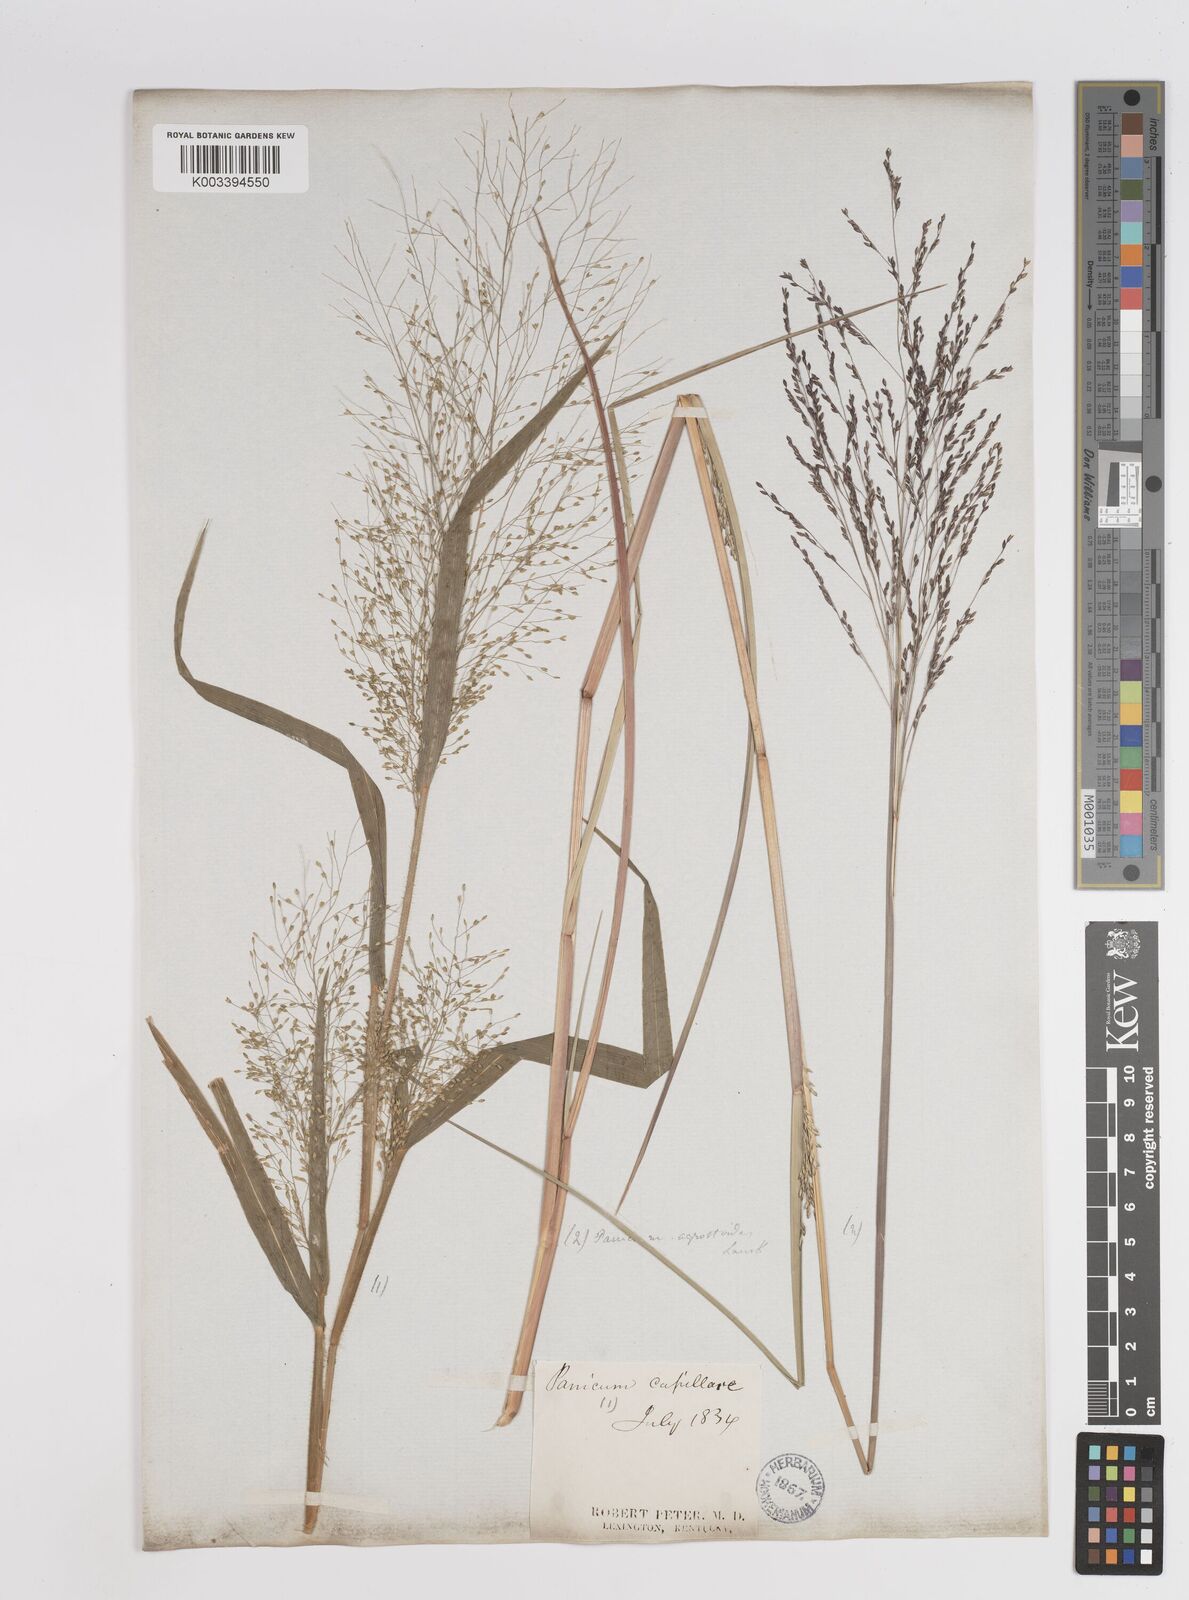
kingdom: Plantae
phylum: Tracheophyta
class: Liliopsida
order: Poales
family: Poaceae
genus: Panicum
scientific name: Panicum bartowense
